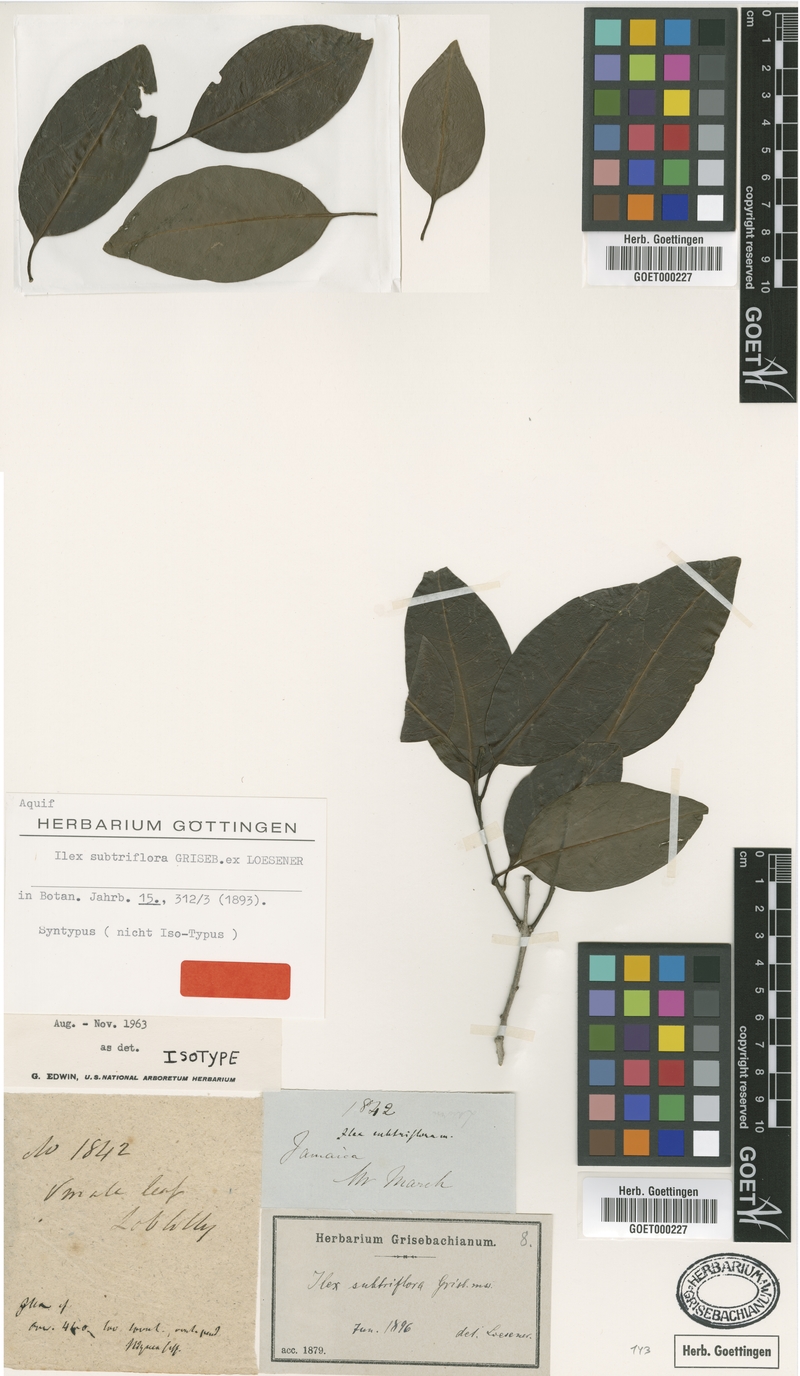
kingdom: Plantae
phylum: Tracheophyta
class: Magnoliopsida
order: Aquifoliales
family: Aquifoliaceae
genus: Ilex
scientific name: Ilex subtriflora
